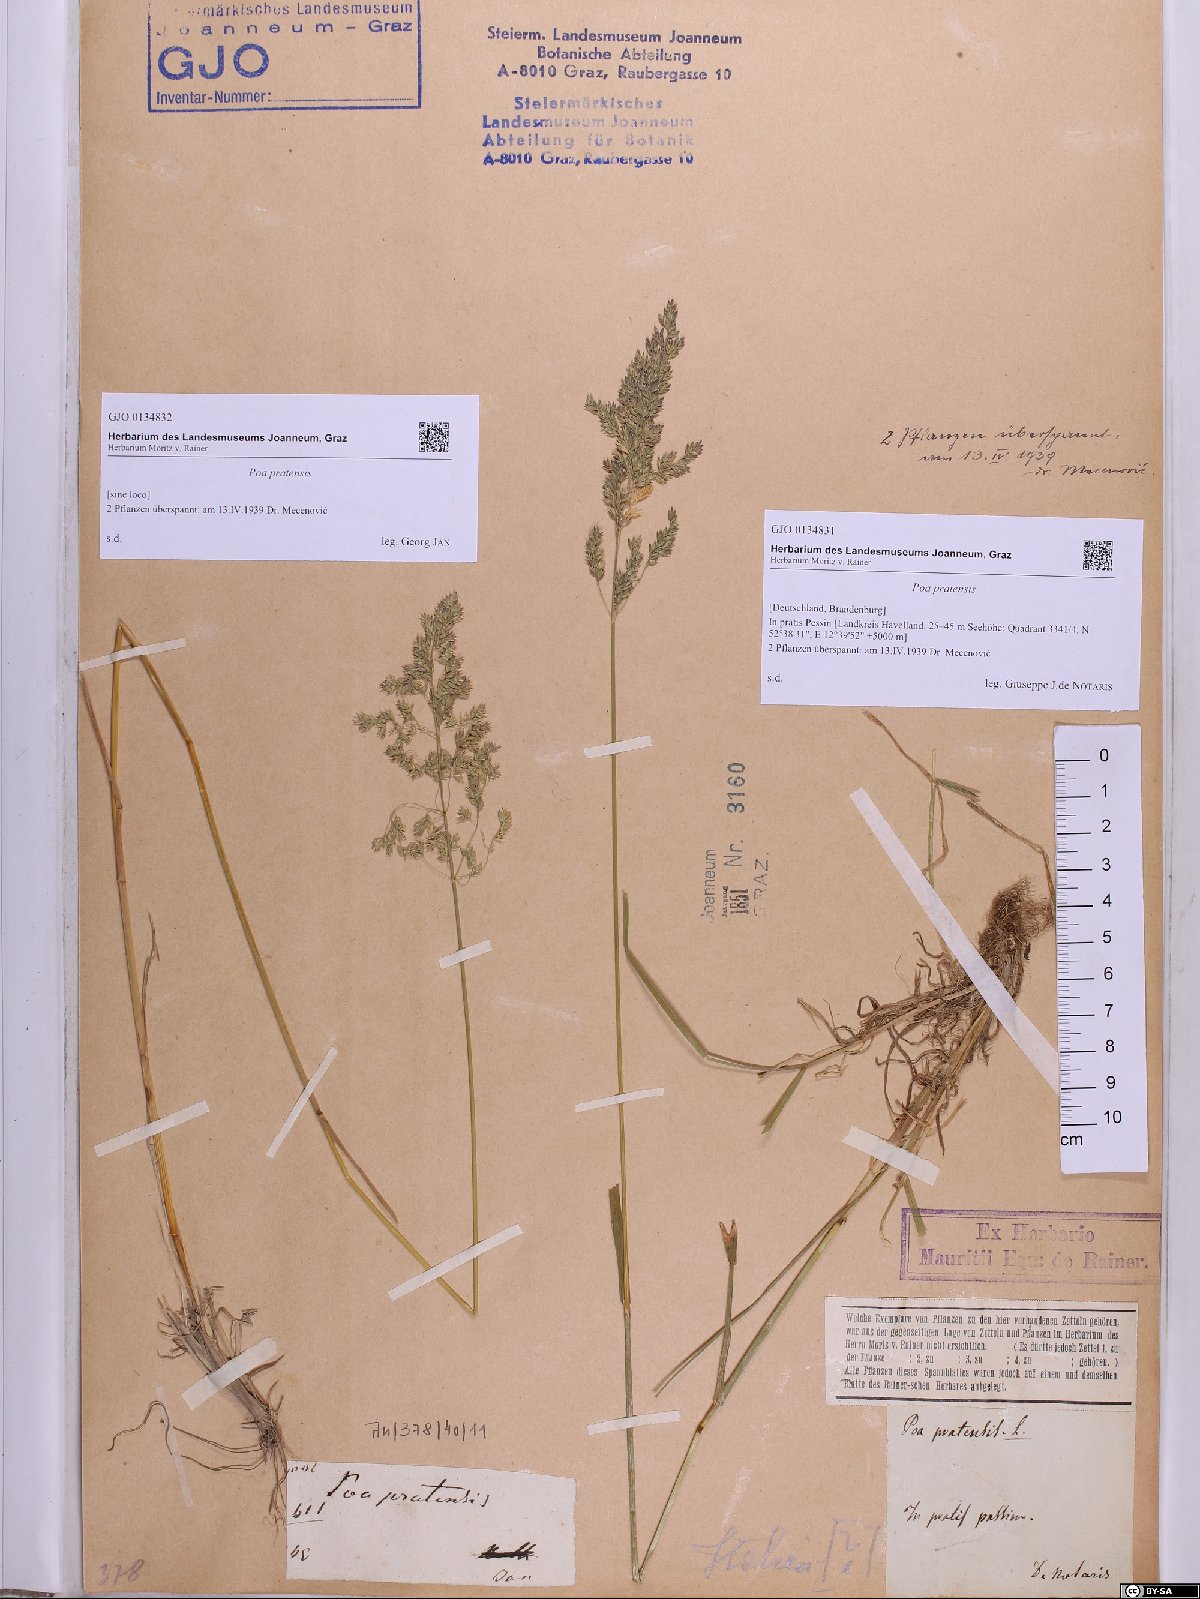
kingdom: Plantae
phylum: Tracheophyta
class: Liliopsida
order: Poales
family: Poaceae
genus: Poa
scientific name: Poa pratensis
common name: Kentucky bluegrass
